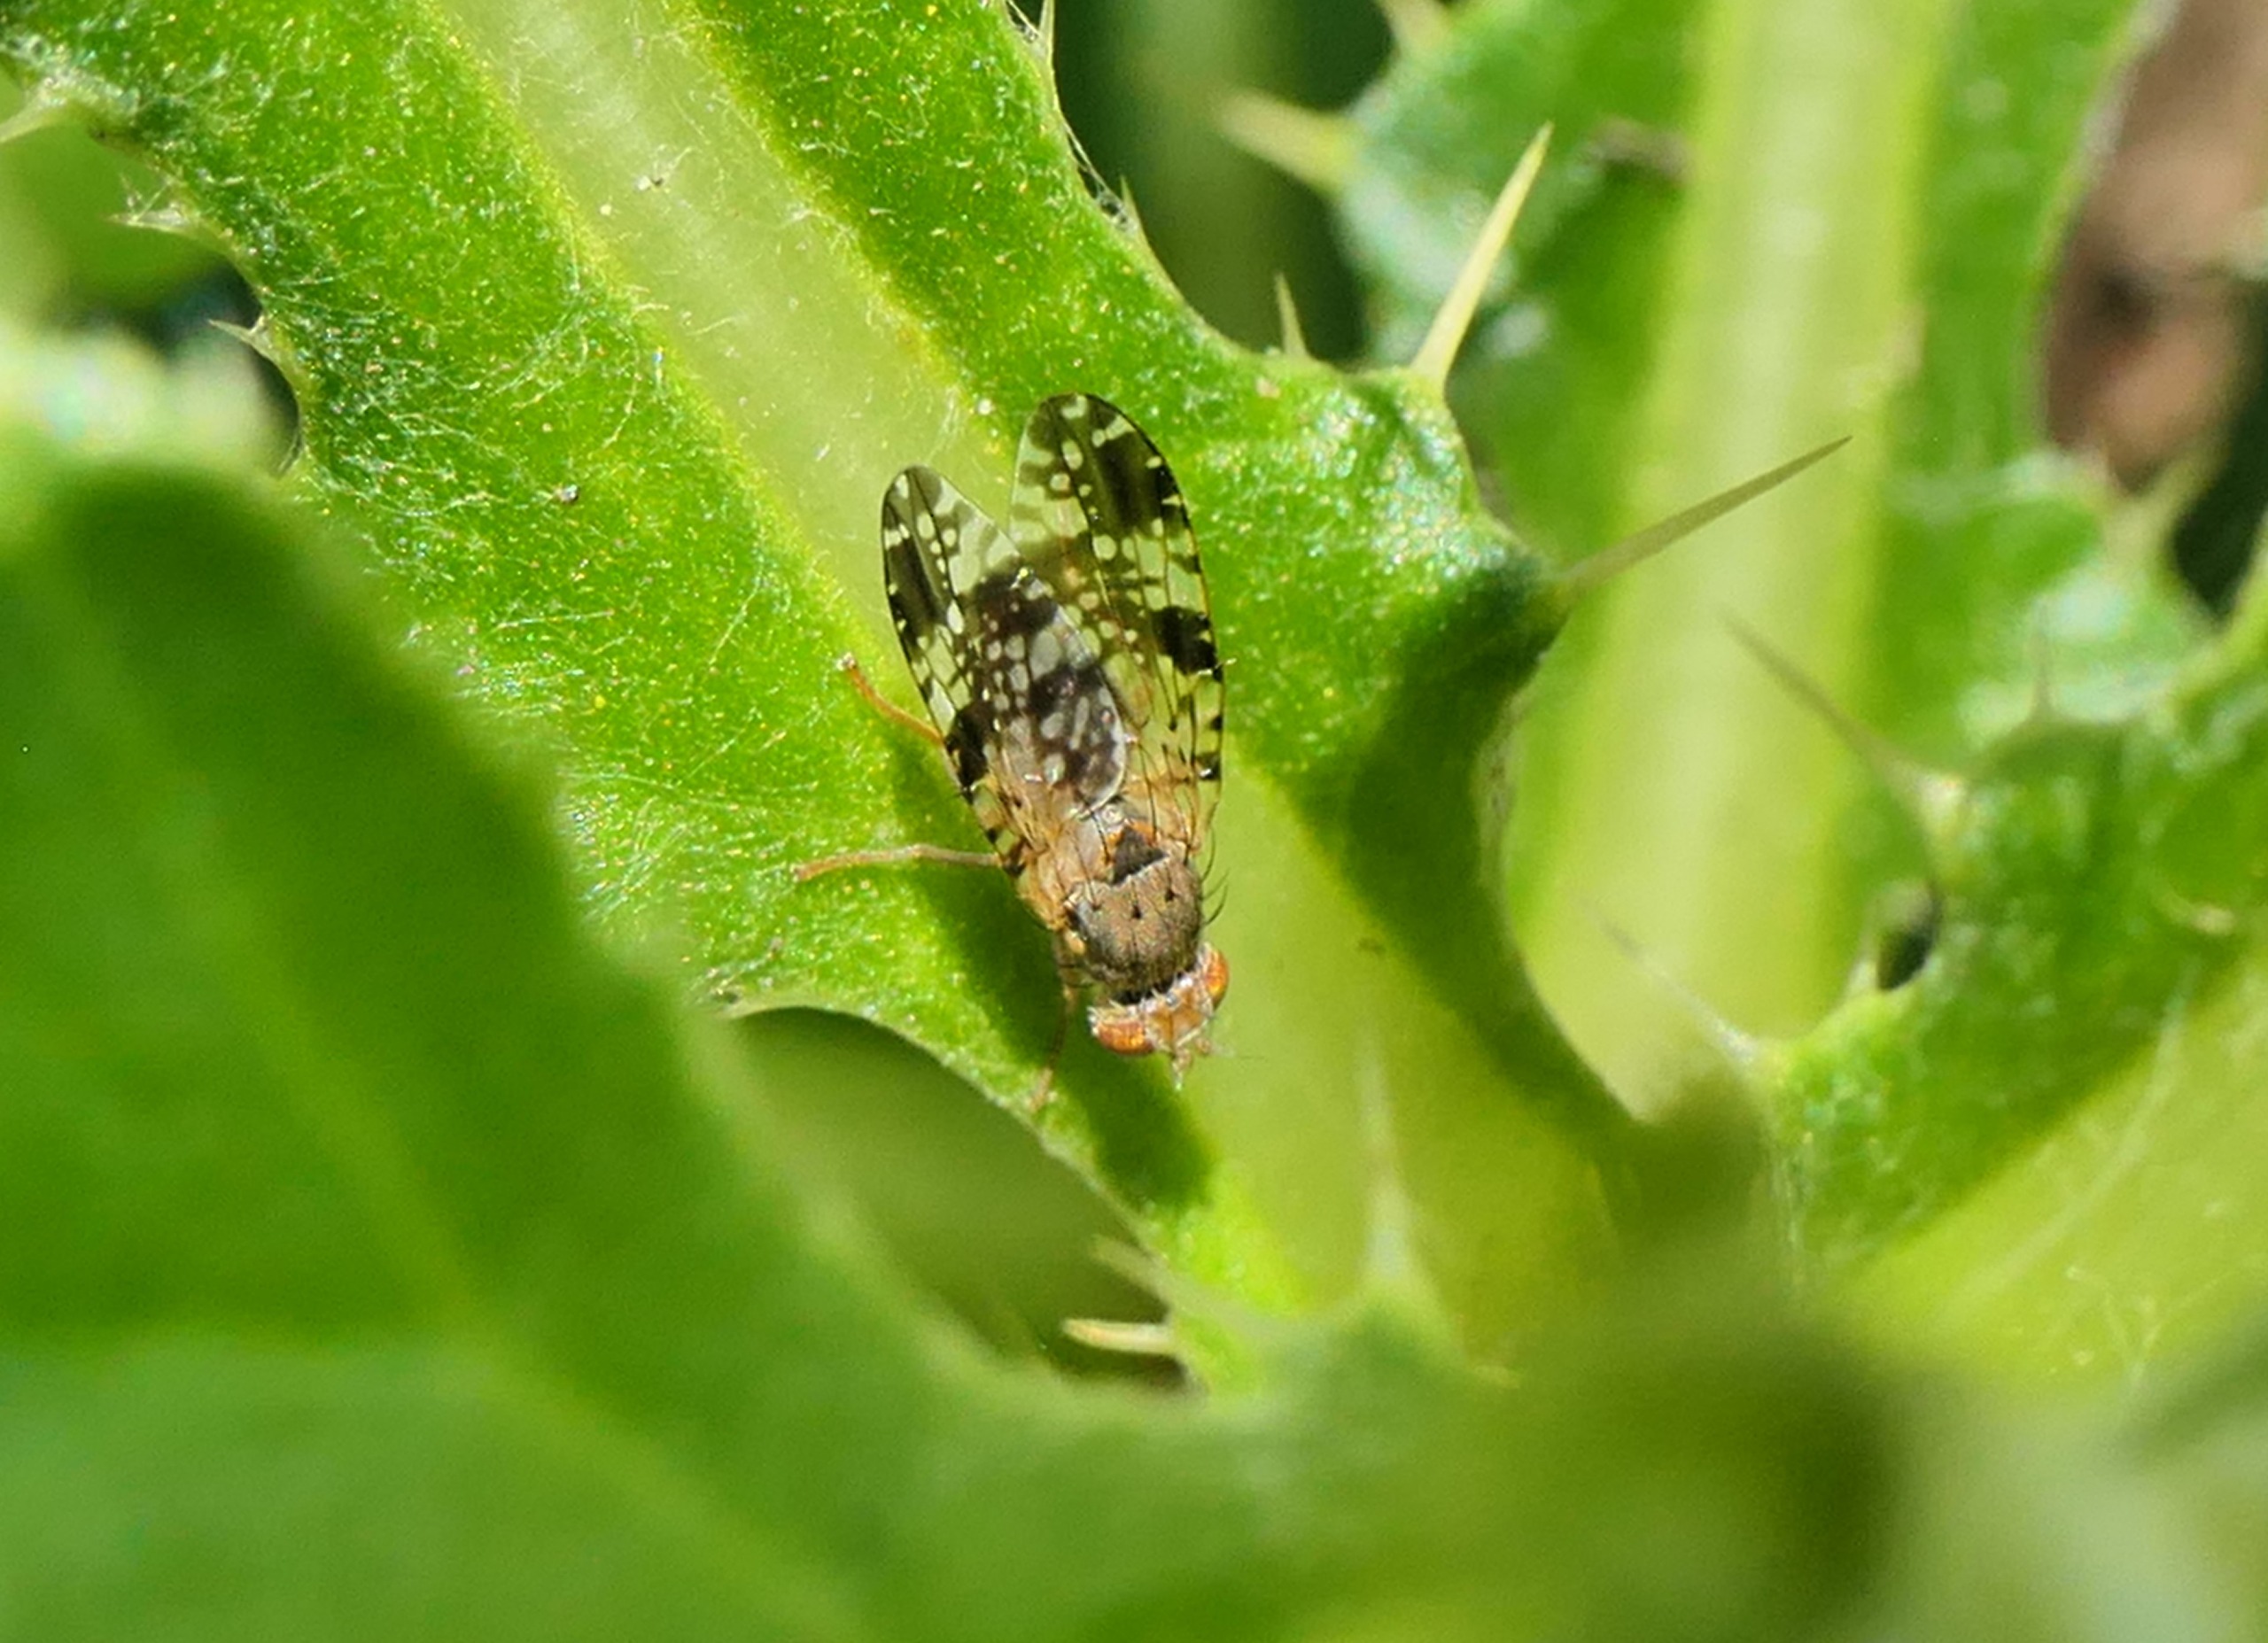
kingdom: Animalia
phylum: Arthropoda
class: Insecta
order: Diptera
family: Tephritidae
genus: Tephritis
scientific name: Tephritis vespertina
